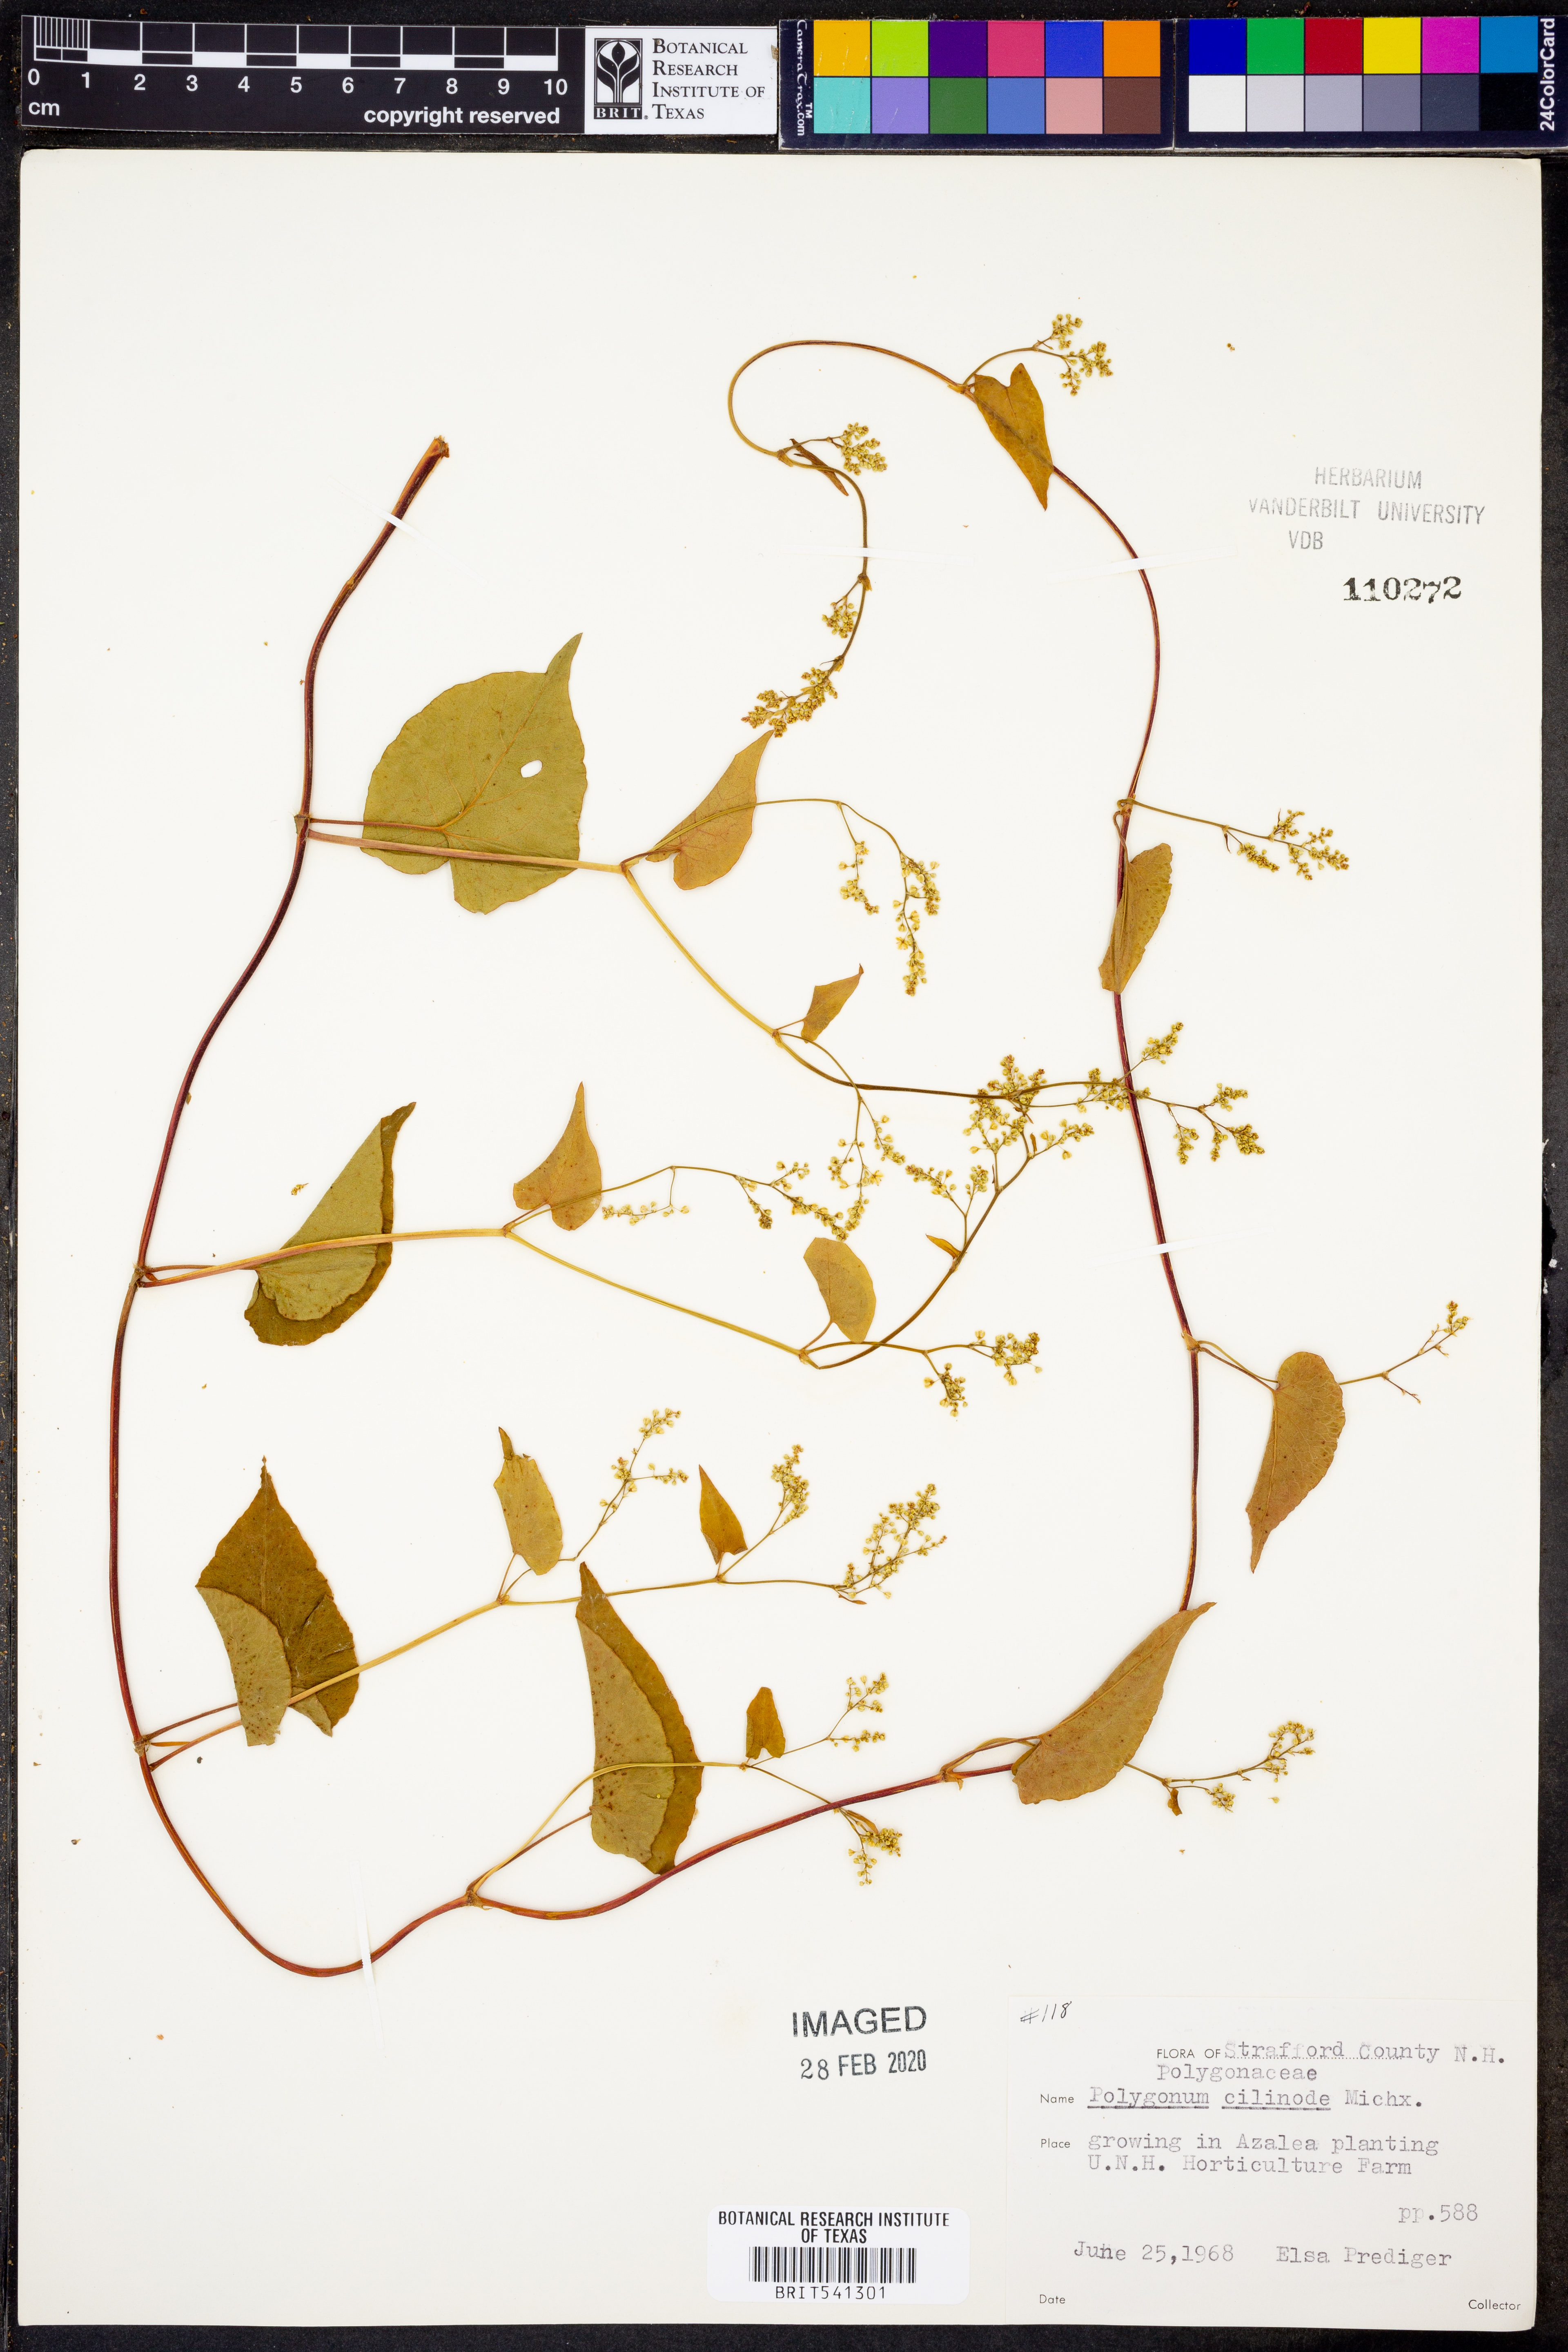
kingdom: Plantae
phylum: Tracheophyta
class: Magnoliopsida
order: Caryophyllales
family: Polygonaceae
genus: Parogonum
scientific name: Parogonum ciliinode
